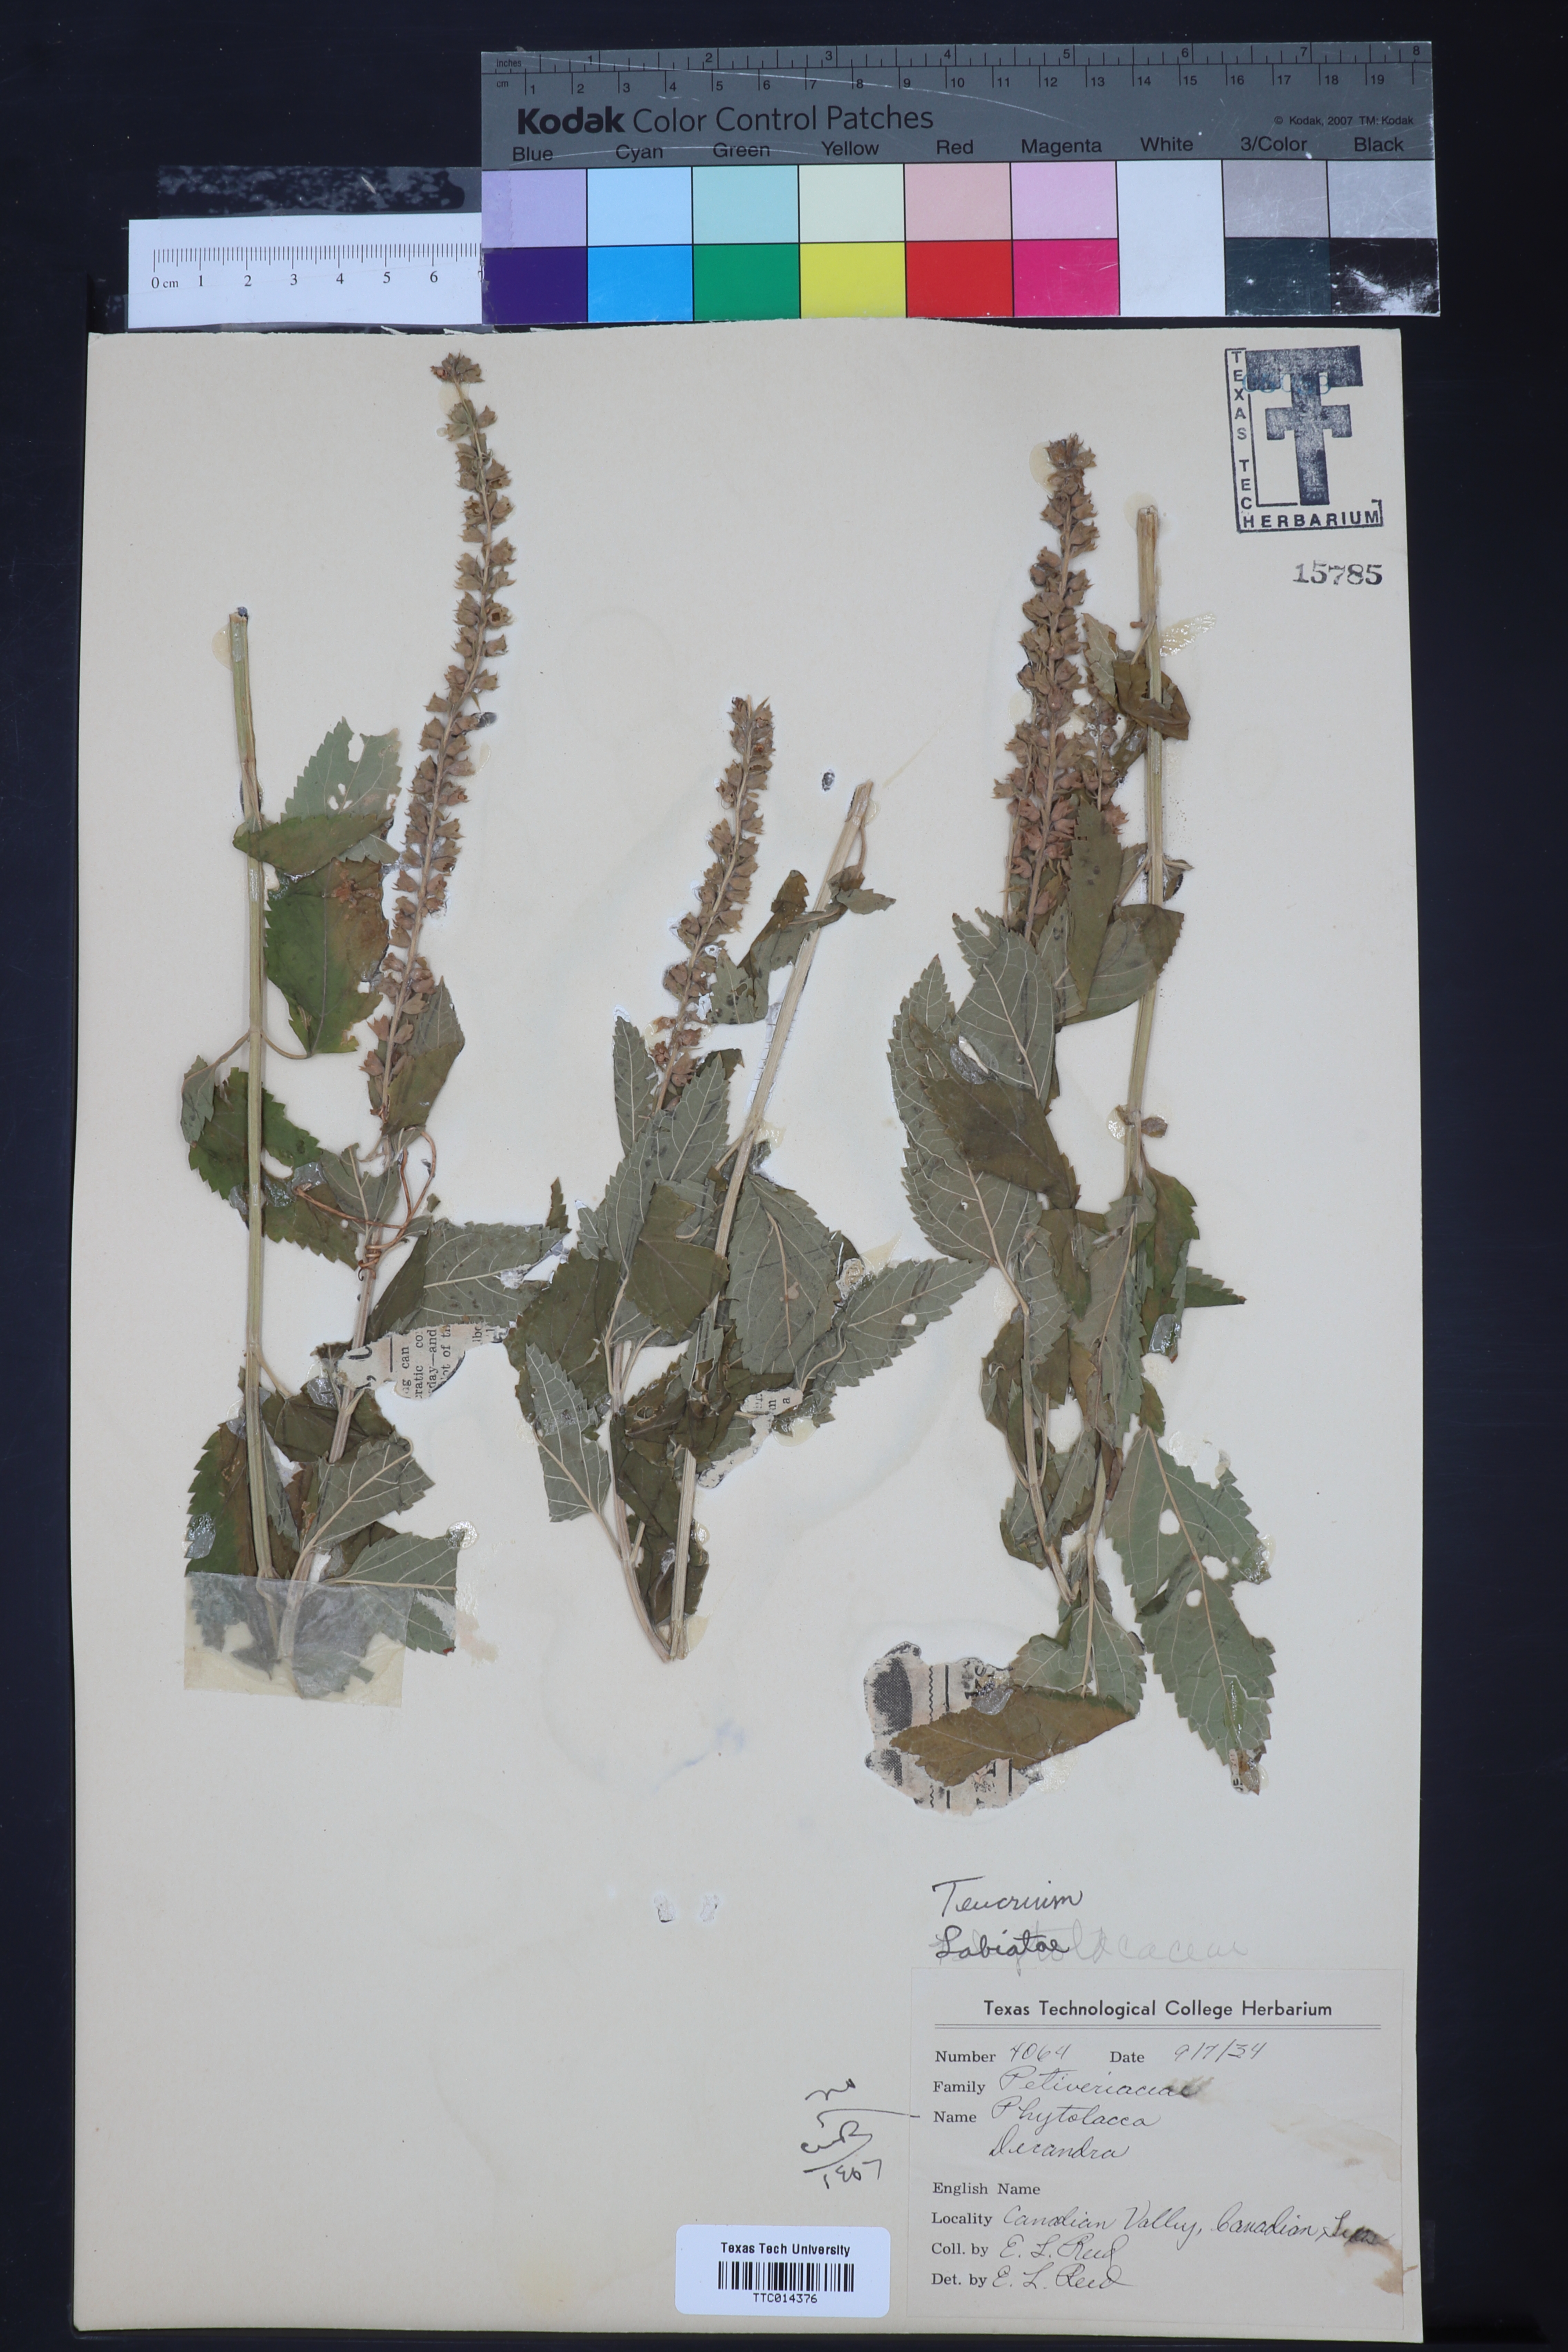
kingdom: Plantae
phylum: Tracheophyta
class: Magnoliopsida
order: Lamiales
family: Lamiaceae
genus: Teucrium
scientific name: Teucrium
